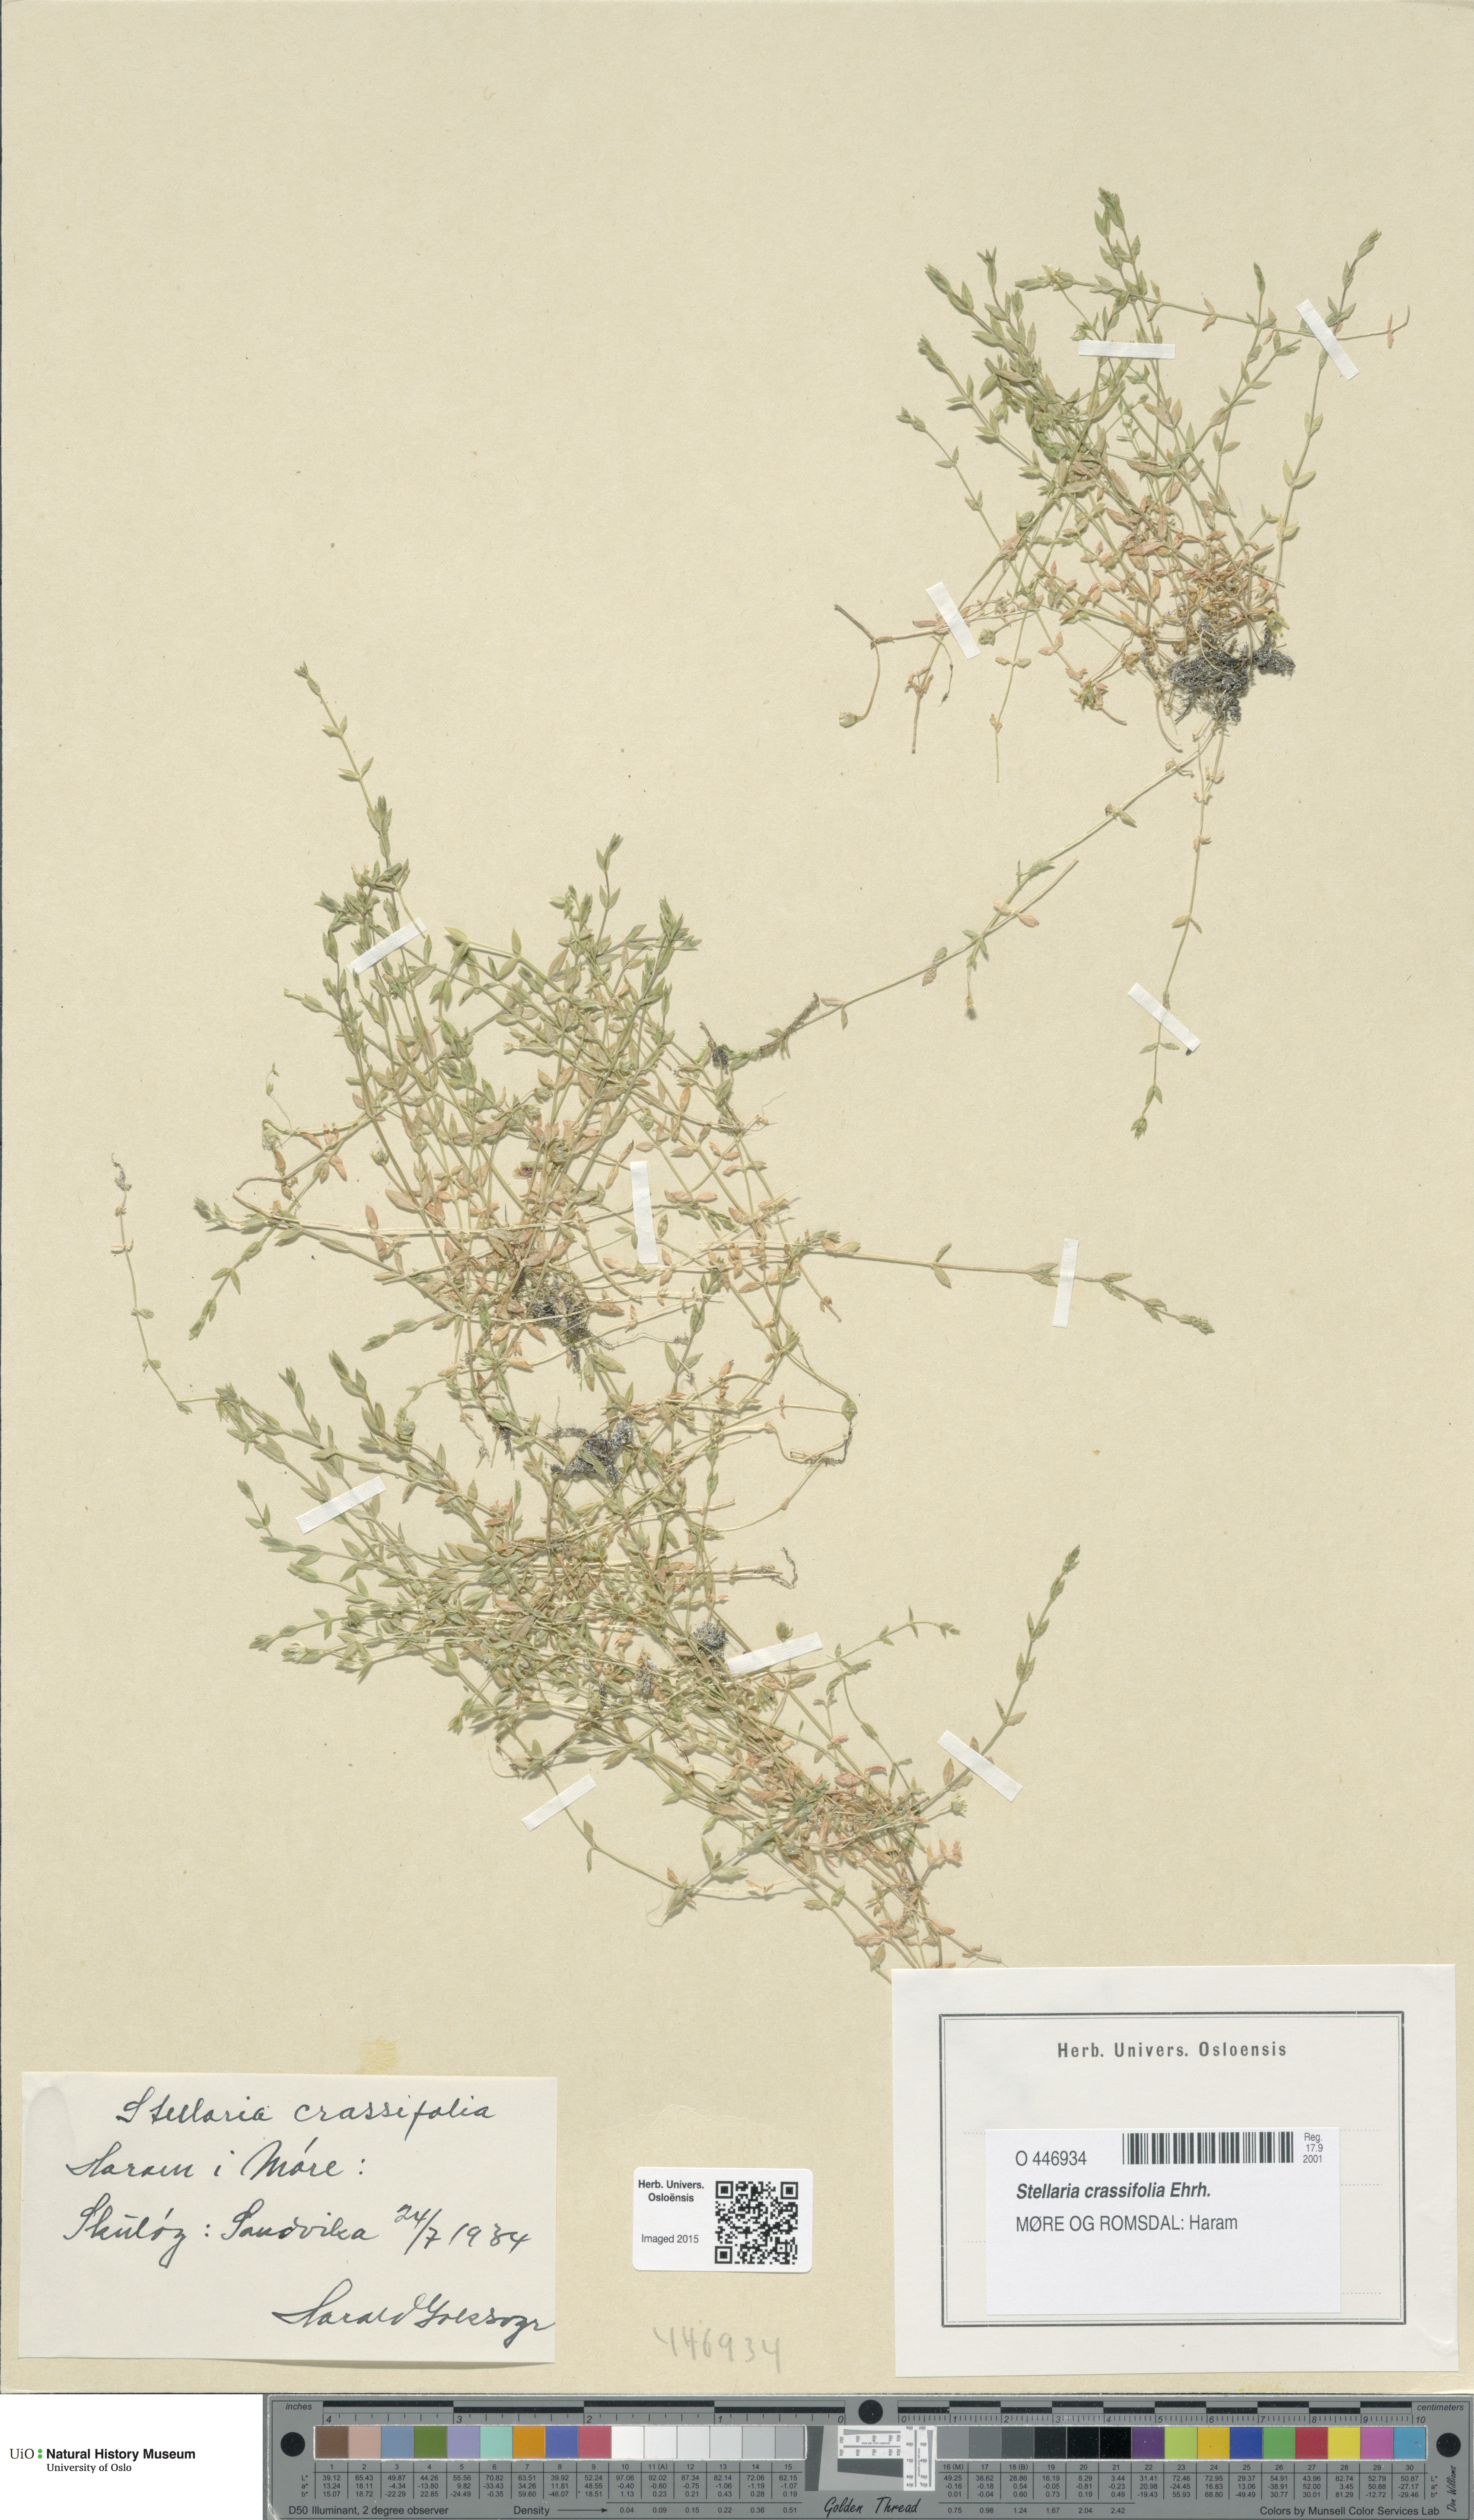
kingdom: Plantae
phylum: Tracheophyta
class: Magnoliopsida
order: Caryophyllales
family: Caryophyllaceae
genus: Stellaria
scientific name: Stellaria crassifolia
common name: Fleshy starwort
